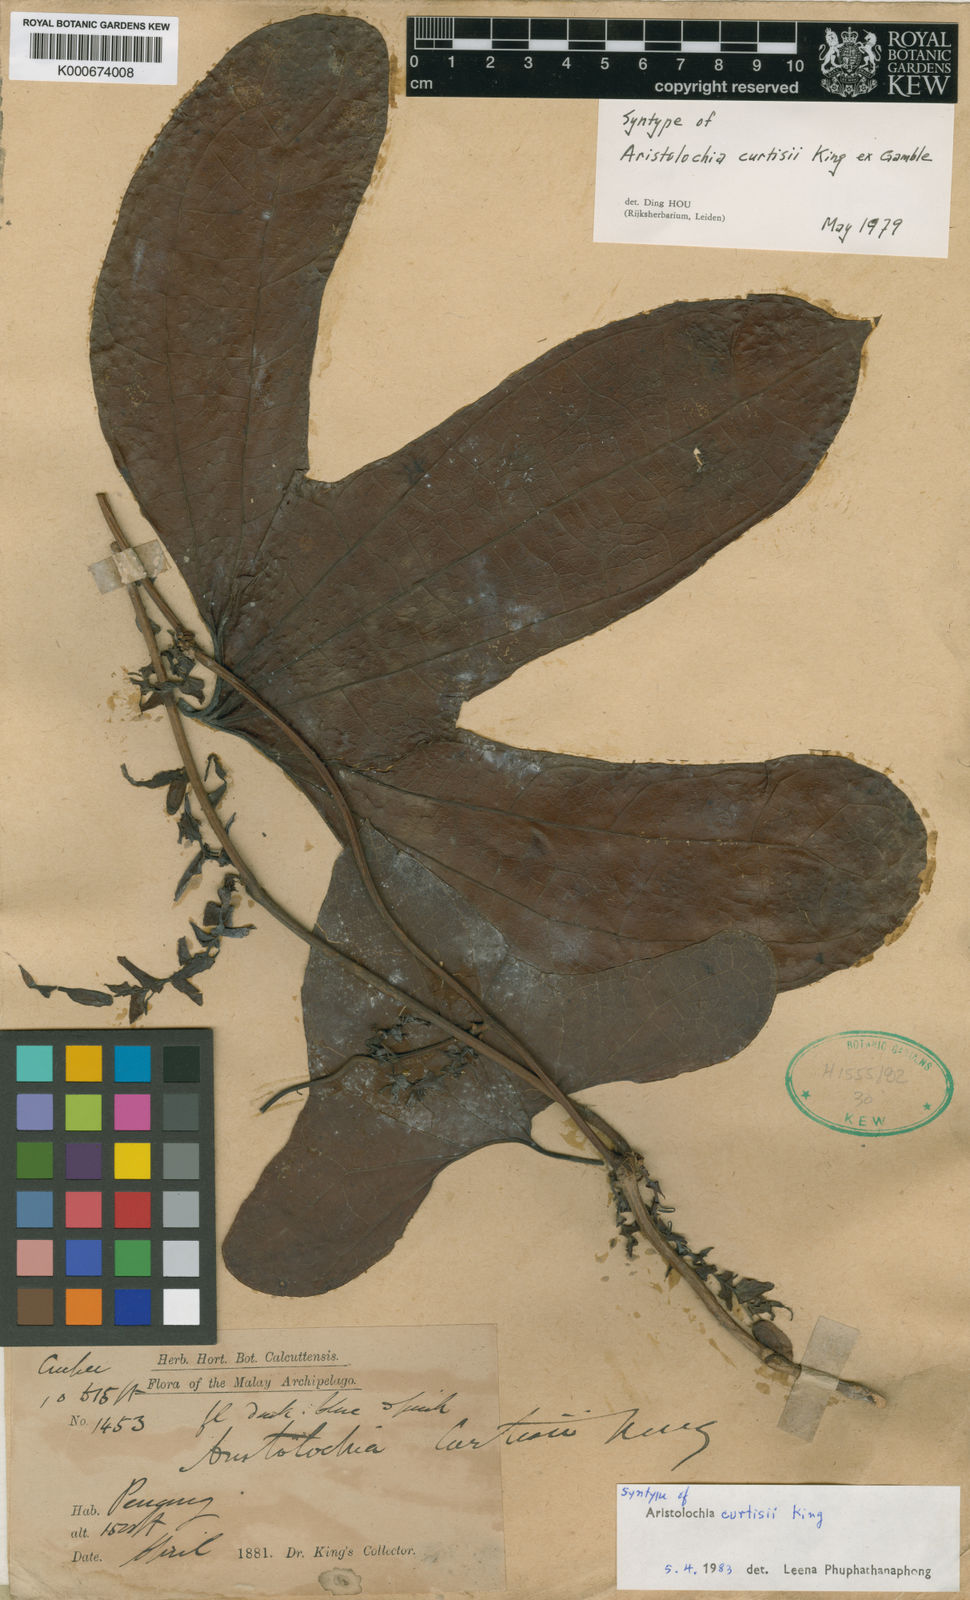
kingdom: Plantae
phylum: Tracheophyta
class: Magnoliopsida
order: Piperales
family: Aristolochiaceae
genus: Aristolochia
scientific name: Aristolochia
